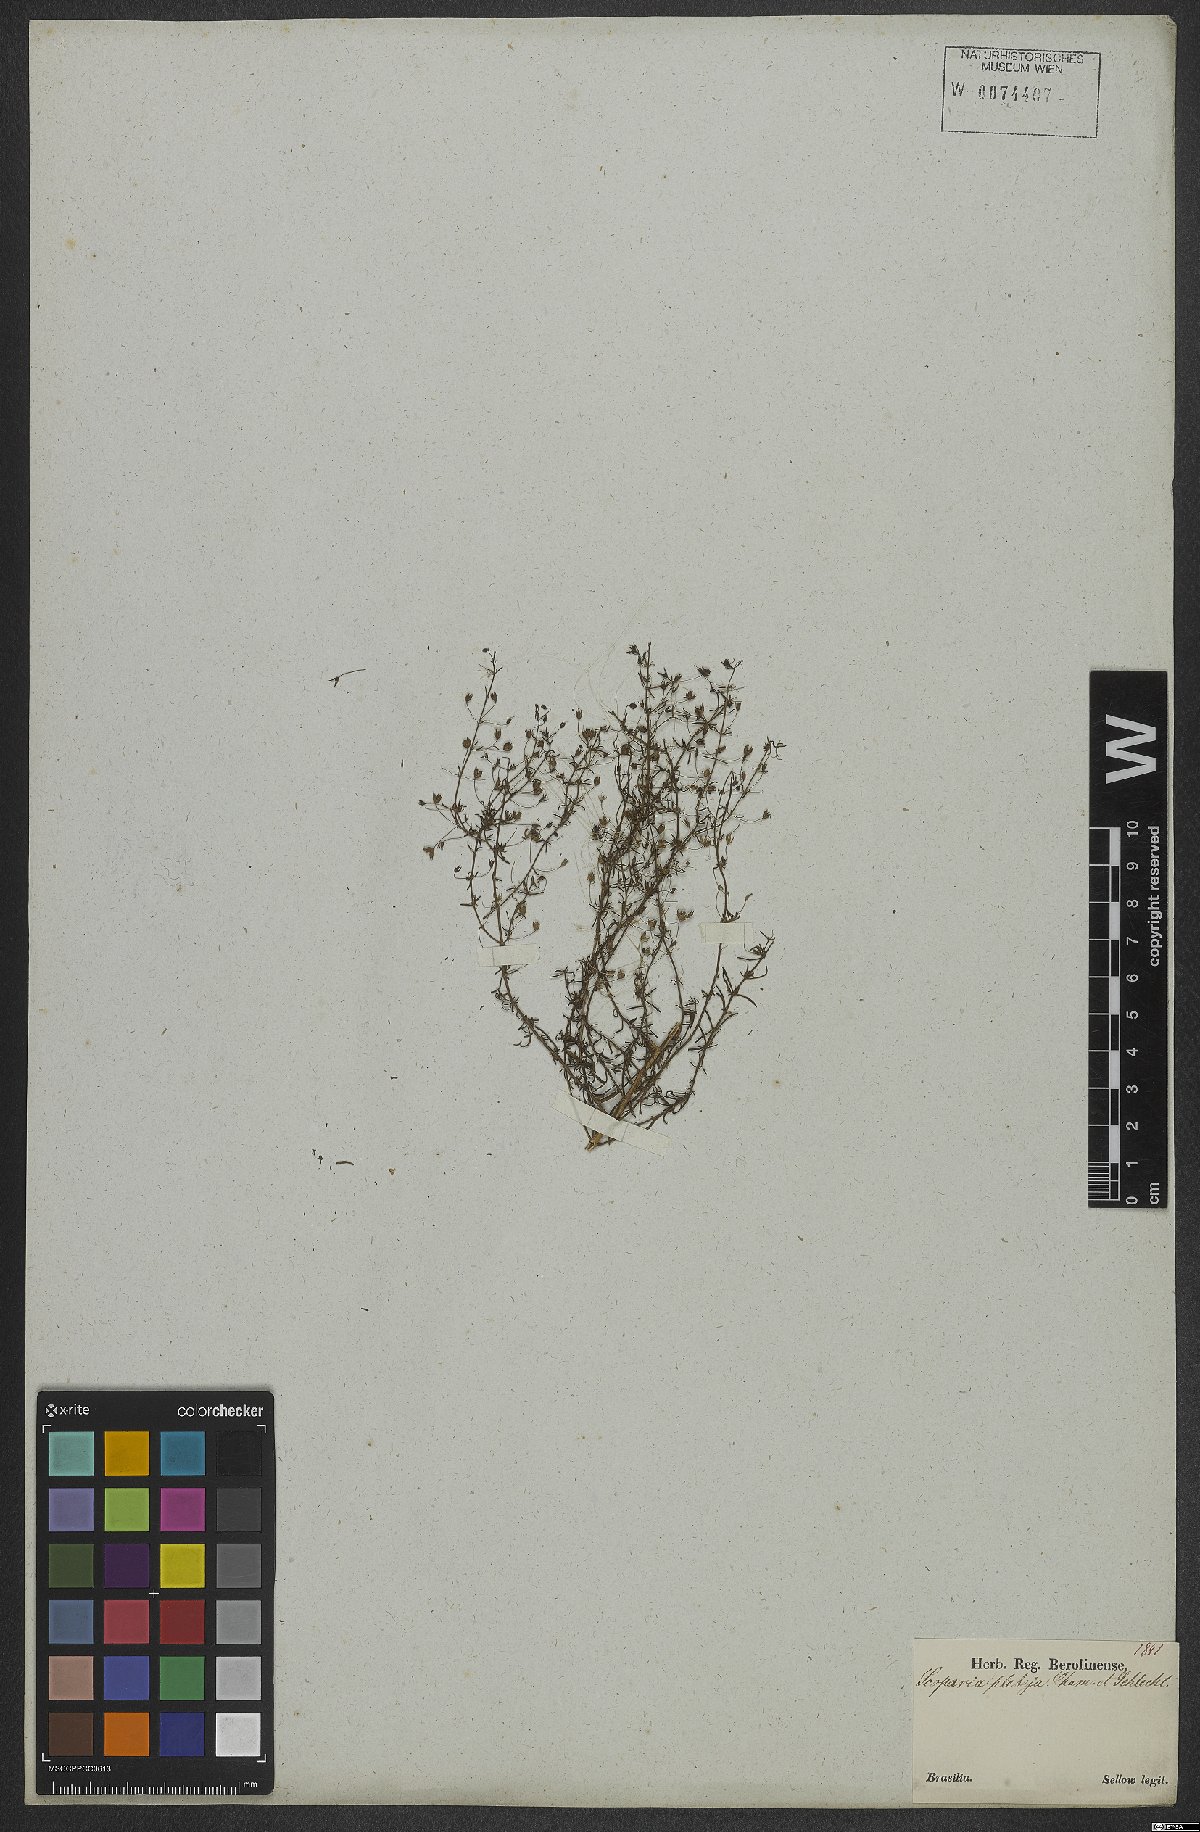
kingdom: Plantae
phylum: Tracheophyta
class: Magnoliopsida
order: Lamiales
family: Plantaginaceae
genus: Scoparia
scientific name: Scoparia ericacea
